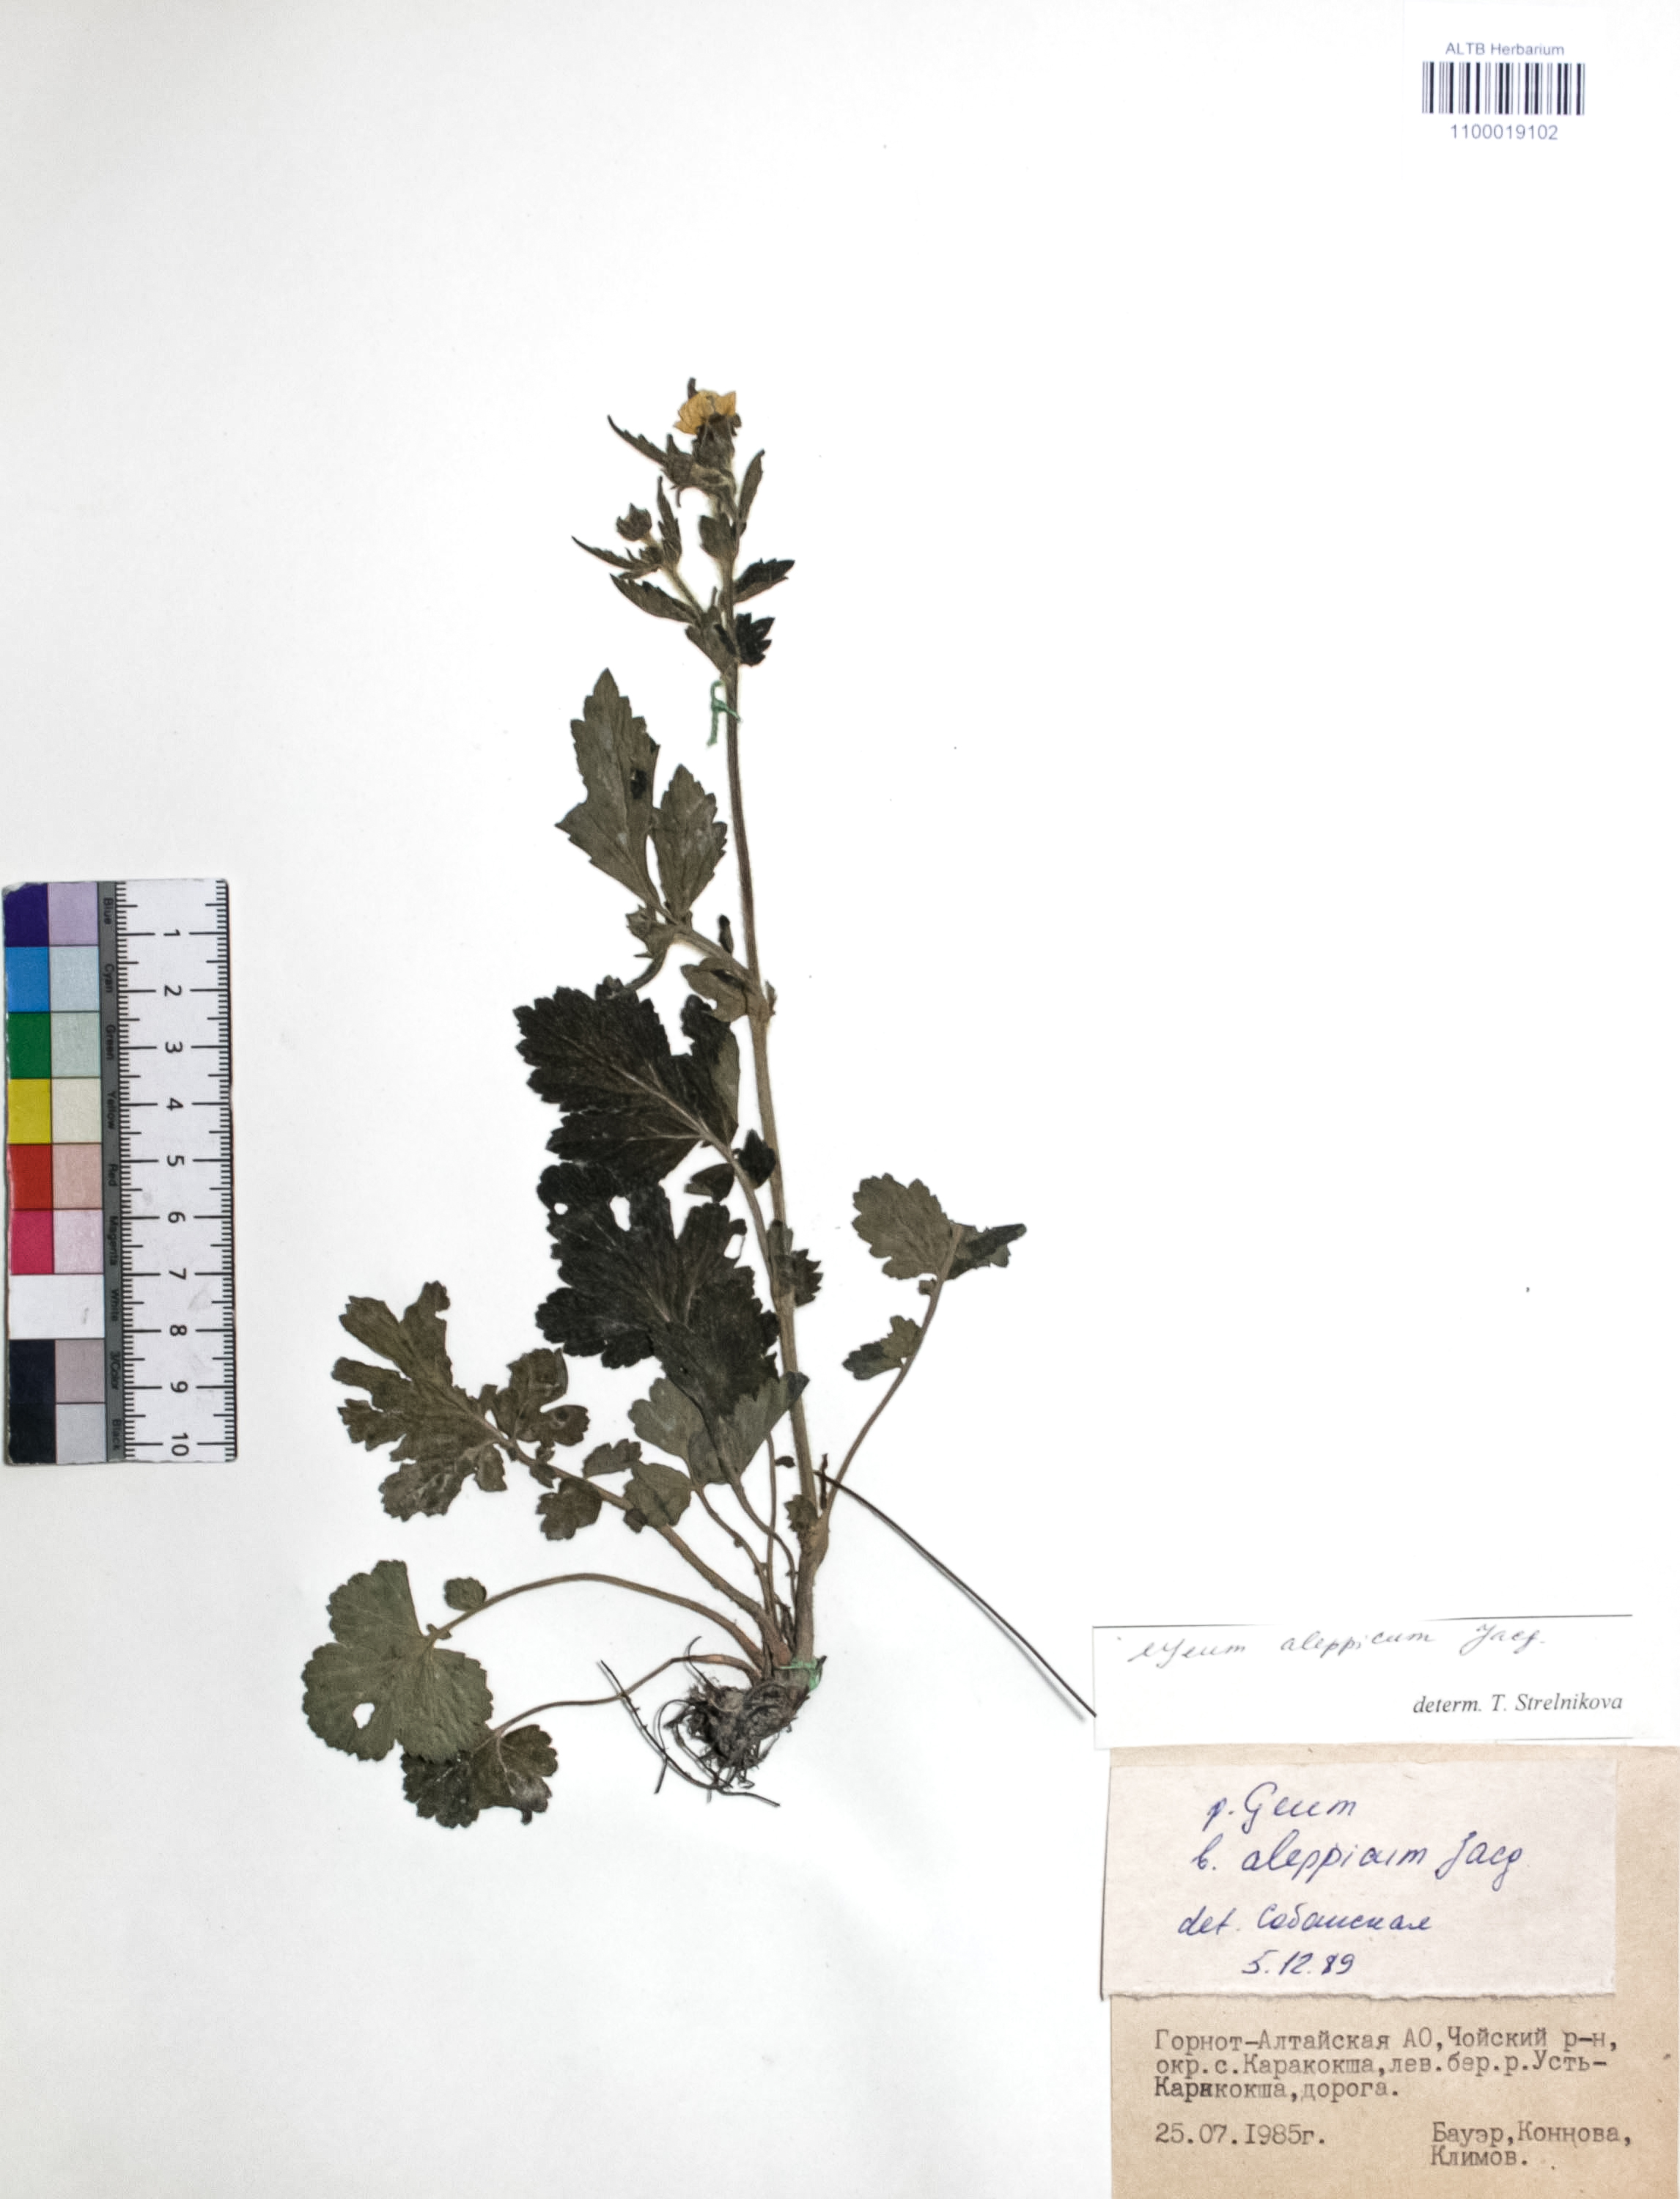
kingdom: Plantae
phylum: Tracheophyta
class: Magnoliopsida
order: Rosales
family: Rosaceae
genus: Geum
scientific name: Geum aleppicum
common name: Yellow avens
